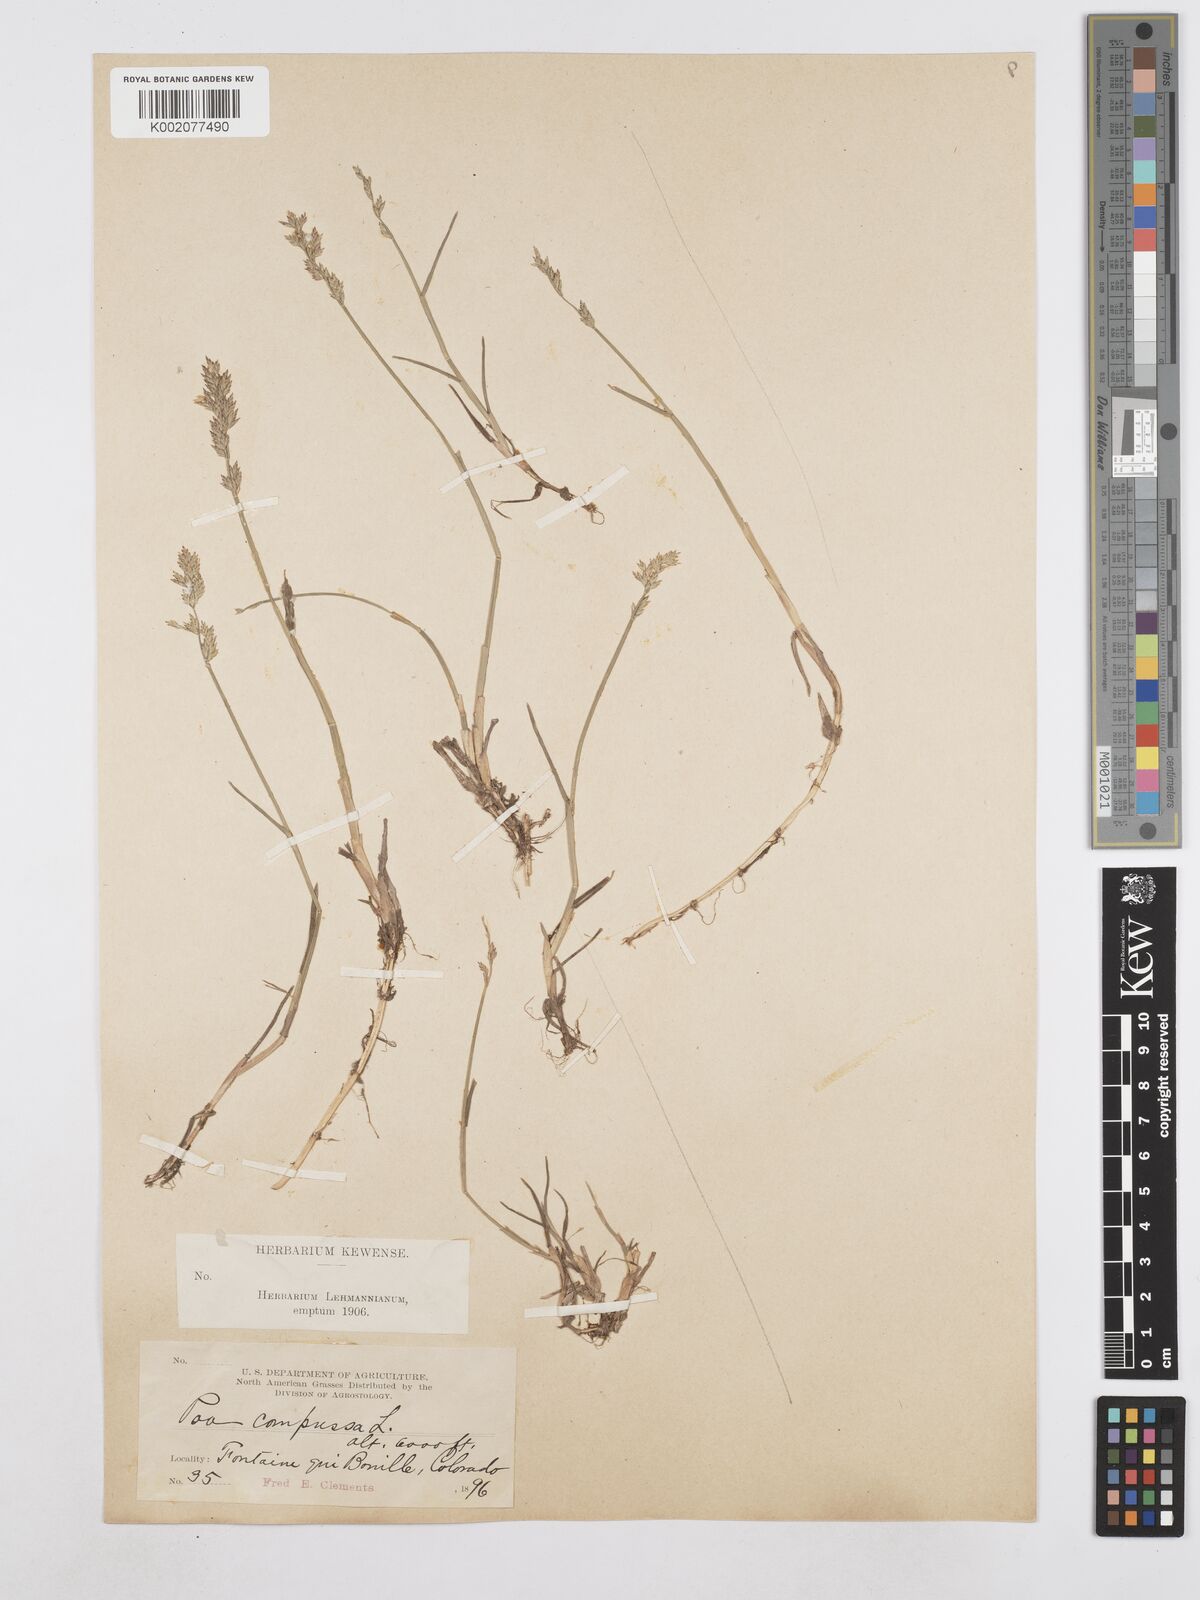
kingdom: Plantae
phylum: Tracheophyta
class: Liliopsida
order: Poales
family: Poaceae
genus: Poa
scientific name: Poa compressa
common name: Canada bluegrass
